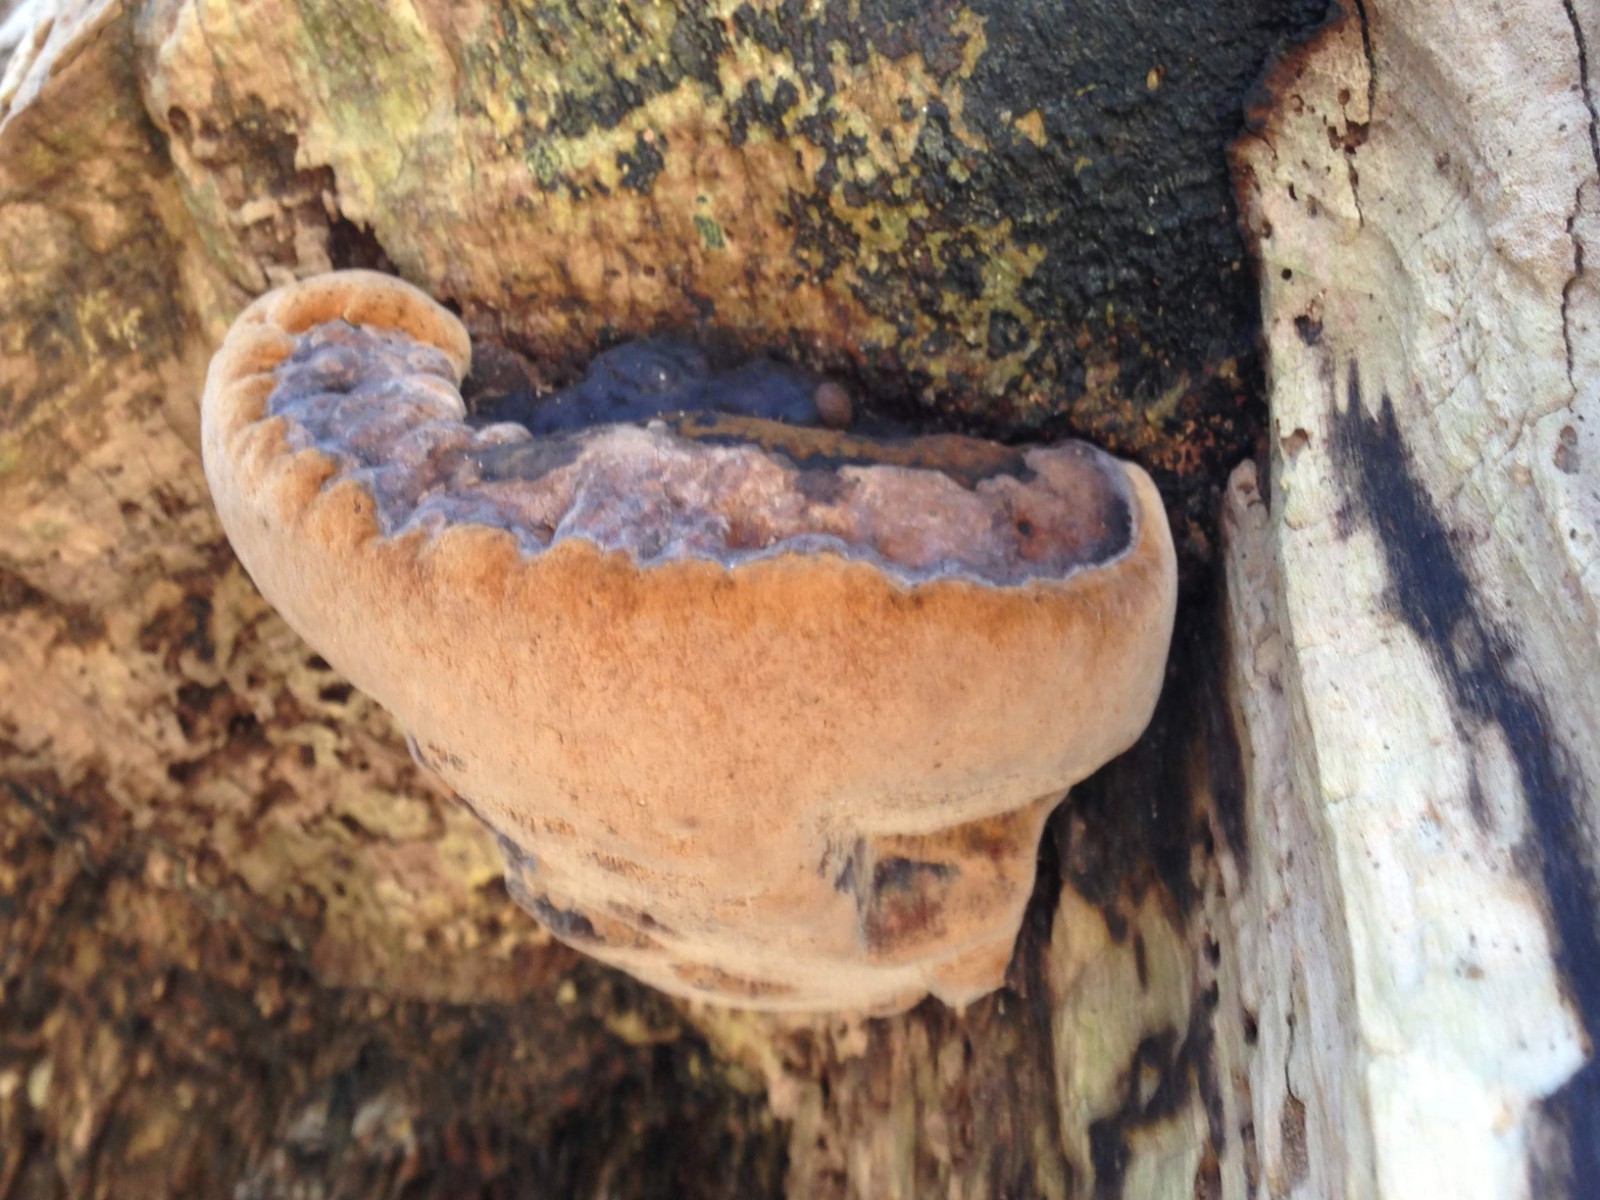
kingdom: Fungi
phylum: Basidiomycota
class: Agaricomycetes
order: Hymenochaetales
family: Hymenochaetaceae
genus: Phellinus
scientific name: Phellinus populicola
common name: poppel-ildporesvamp
